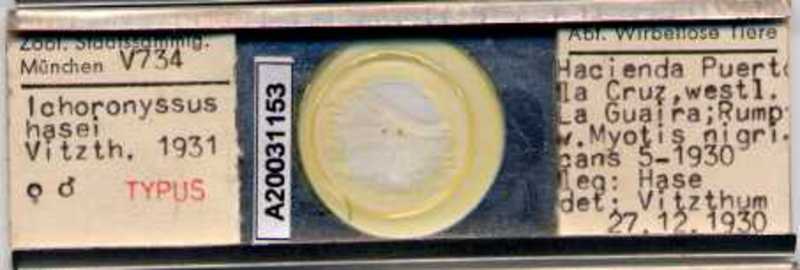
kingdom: Animalia
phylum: Arthropoda
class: Arachnida
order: Mesostigmata
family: Macronyssidae
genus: Macronyssus
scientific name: Macronyssus crosbyi
